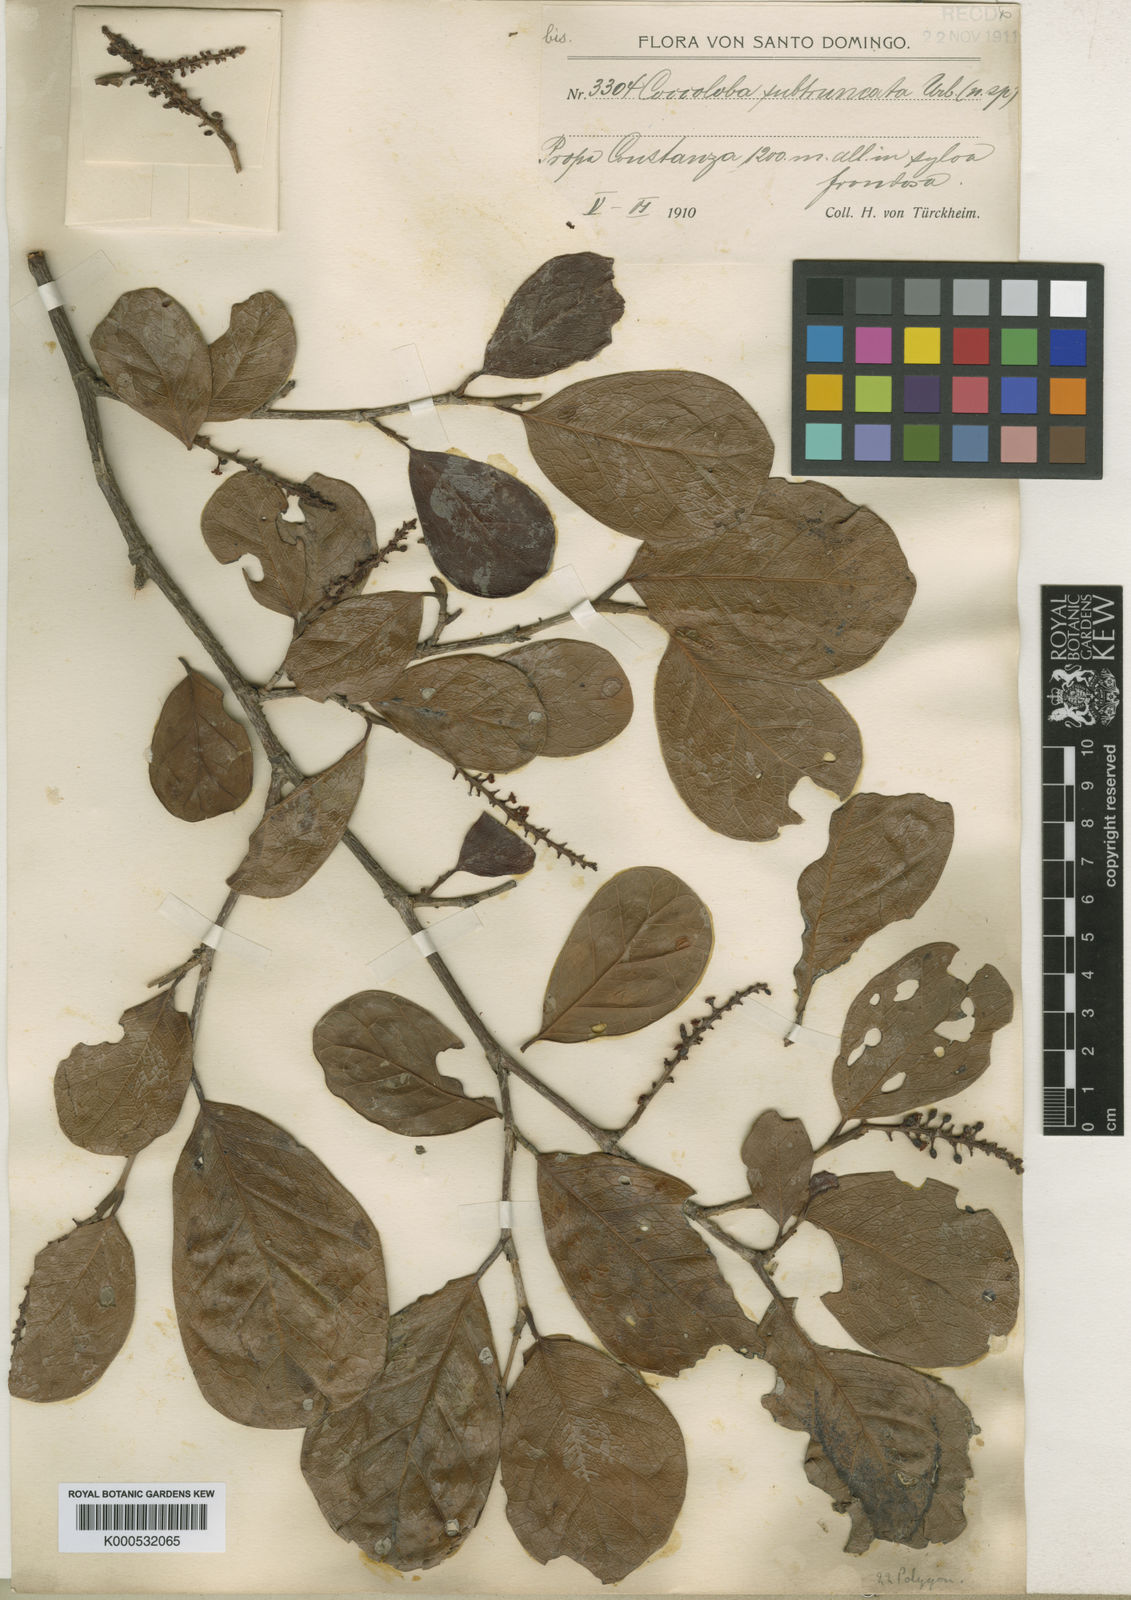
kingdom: Plantae
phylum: Tracheophyta
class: Magnoliopsida
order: Caryophyllales
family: Polygonaceae
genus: Coccoloba
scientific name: Coccoloba wrightii
